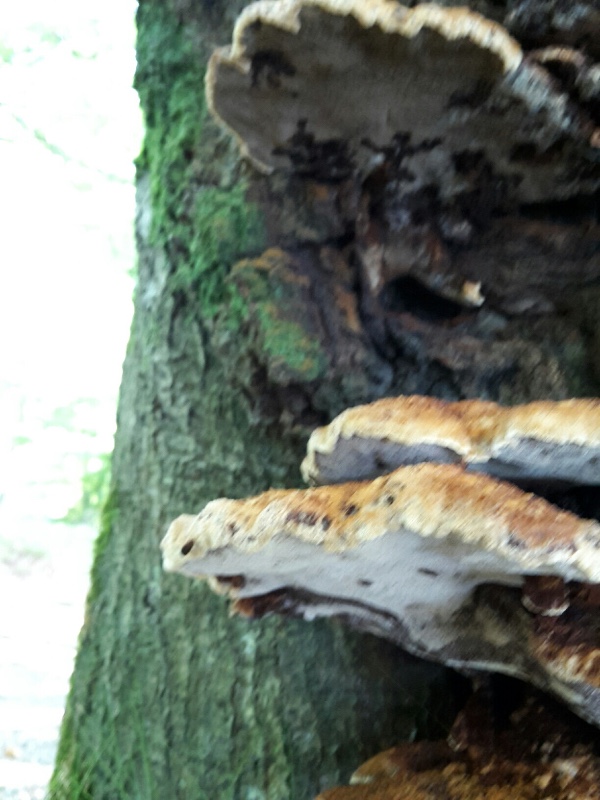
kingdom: Fungi
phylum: Basidiomycota
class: Agaricomycetes
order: Hymenochaetales
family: Hymenochaetaceae
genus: Inonotus
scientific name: Inonotus cuticularis
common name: kroghåret spejlporesvamp
